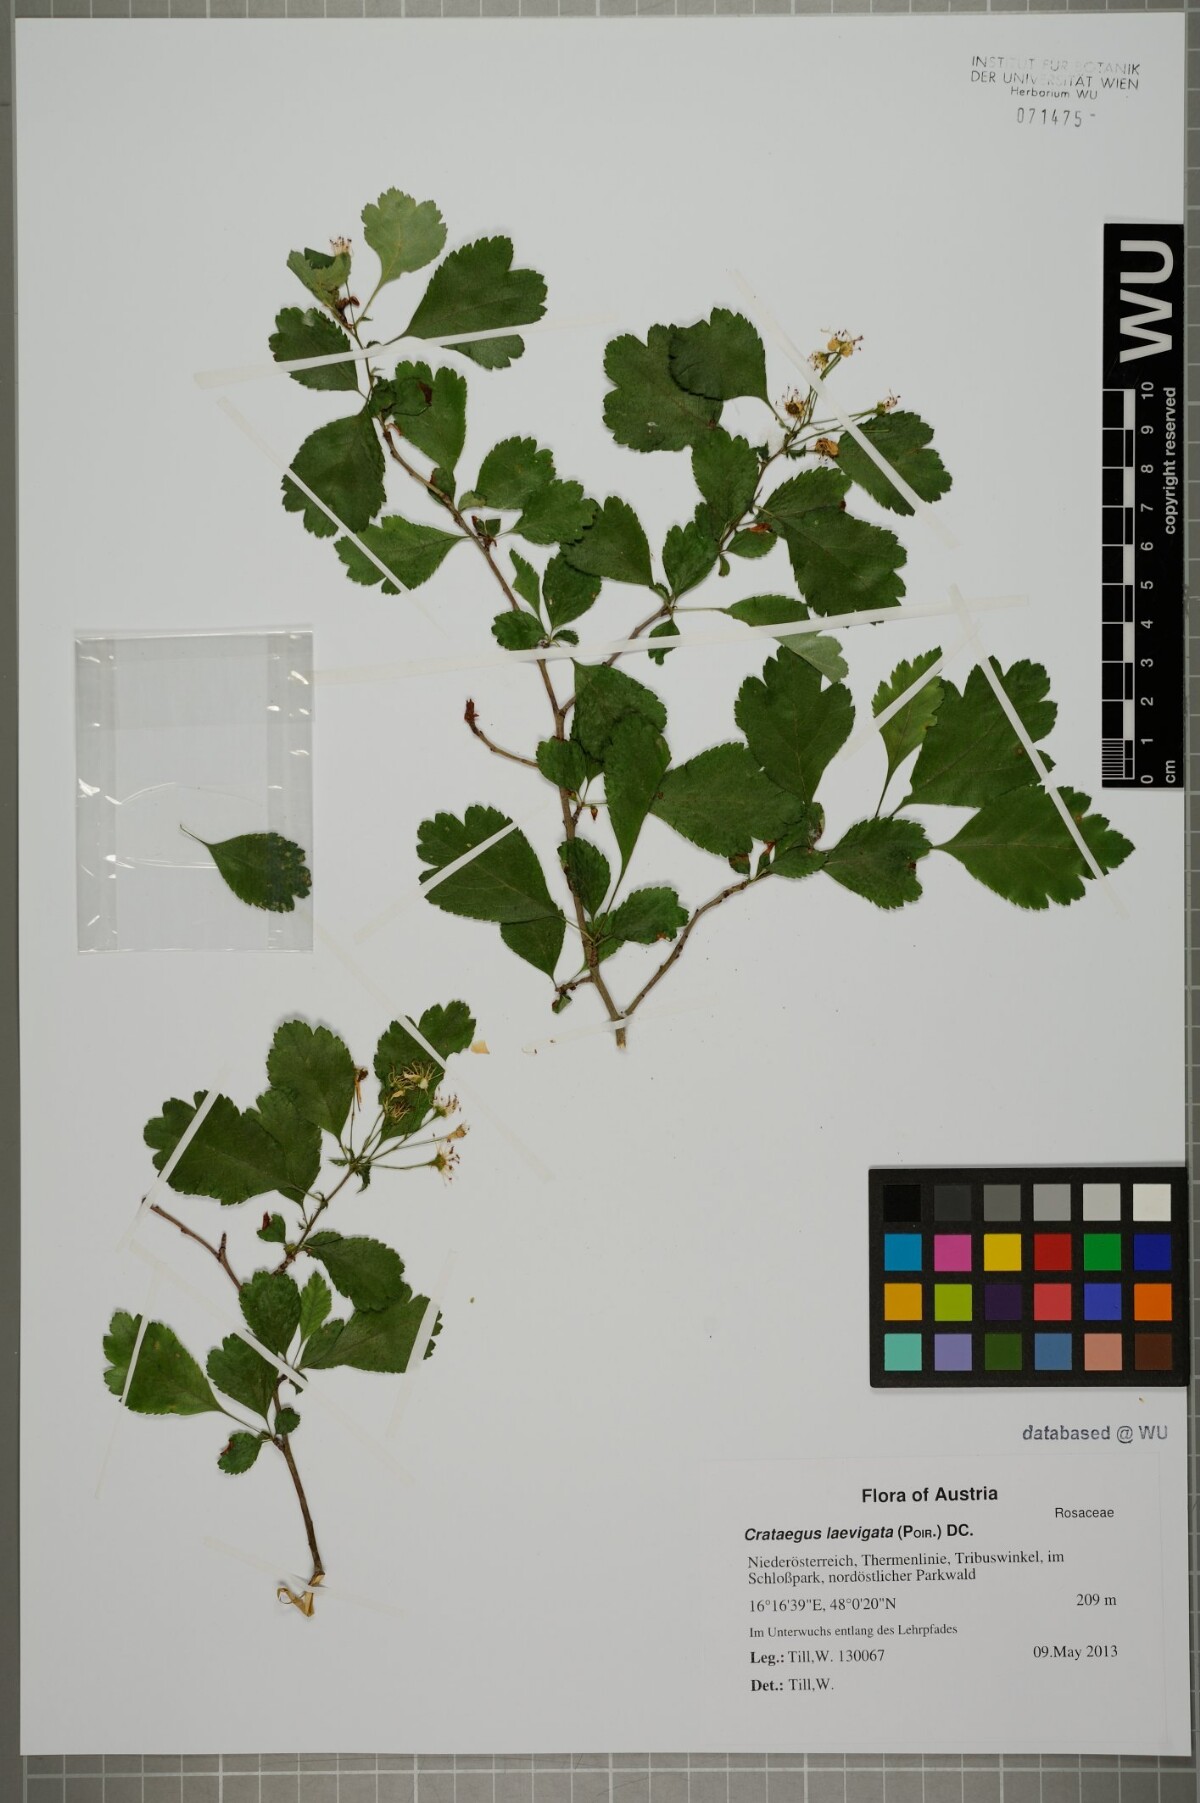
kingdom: Plantae
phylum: Tracheophyta
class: Magnoliopsida
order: Rosales
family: Rosaceae
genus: Crataegus
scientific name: Crataegus laevigata
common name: Midland hawthorn
